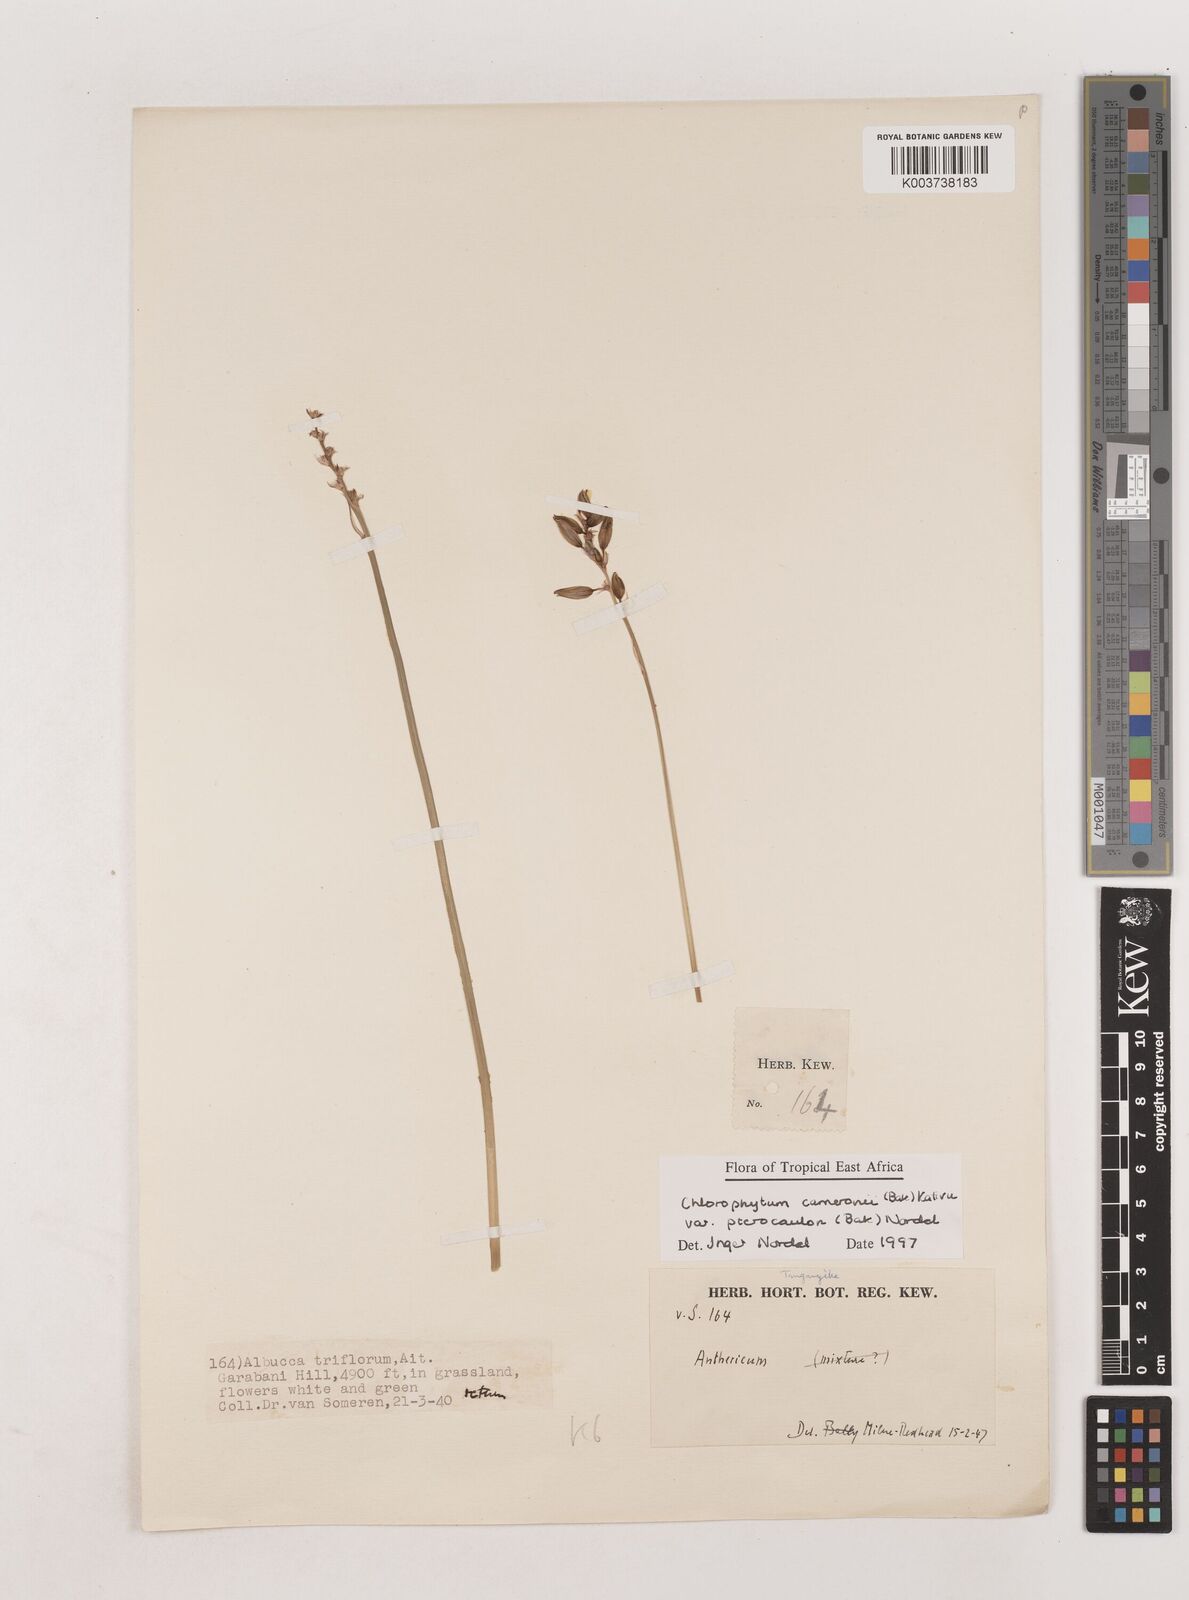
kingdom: Plantae
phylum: Tracheophyta
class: Liliopsida
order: Asparagales
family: Asparagaceae
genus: Chlorophytum
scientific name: Chlorophytum cameronii
